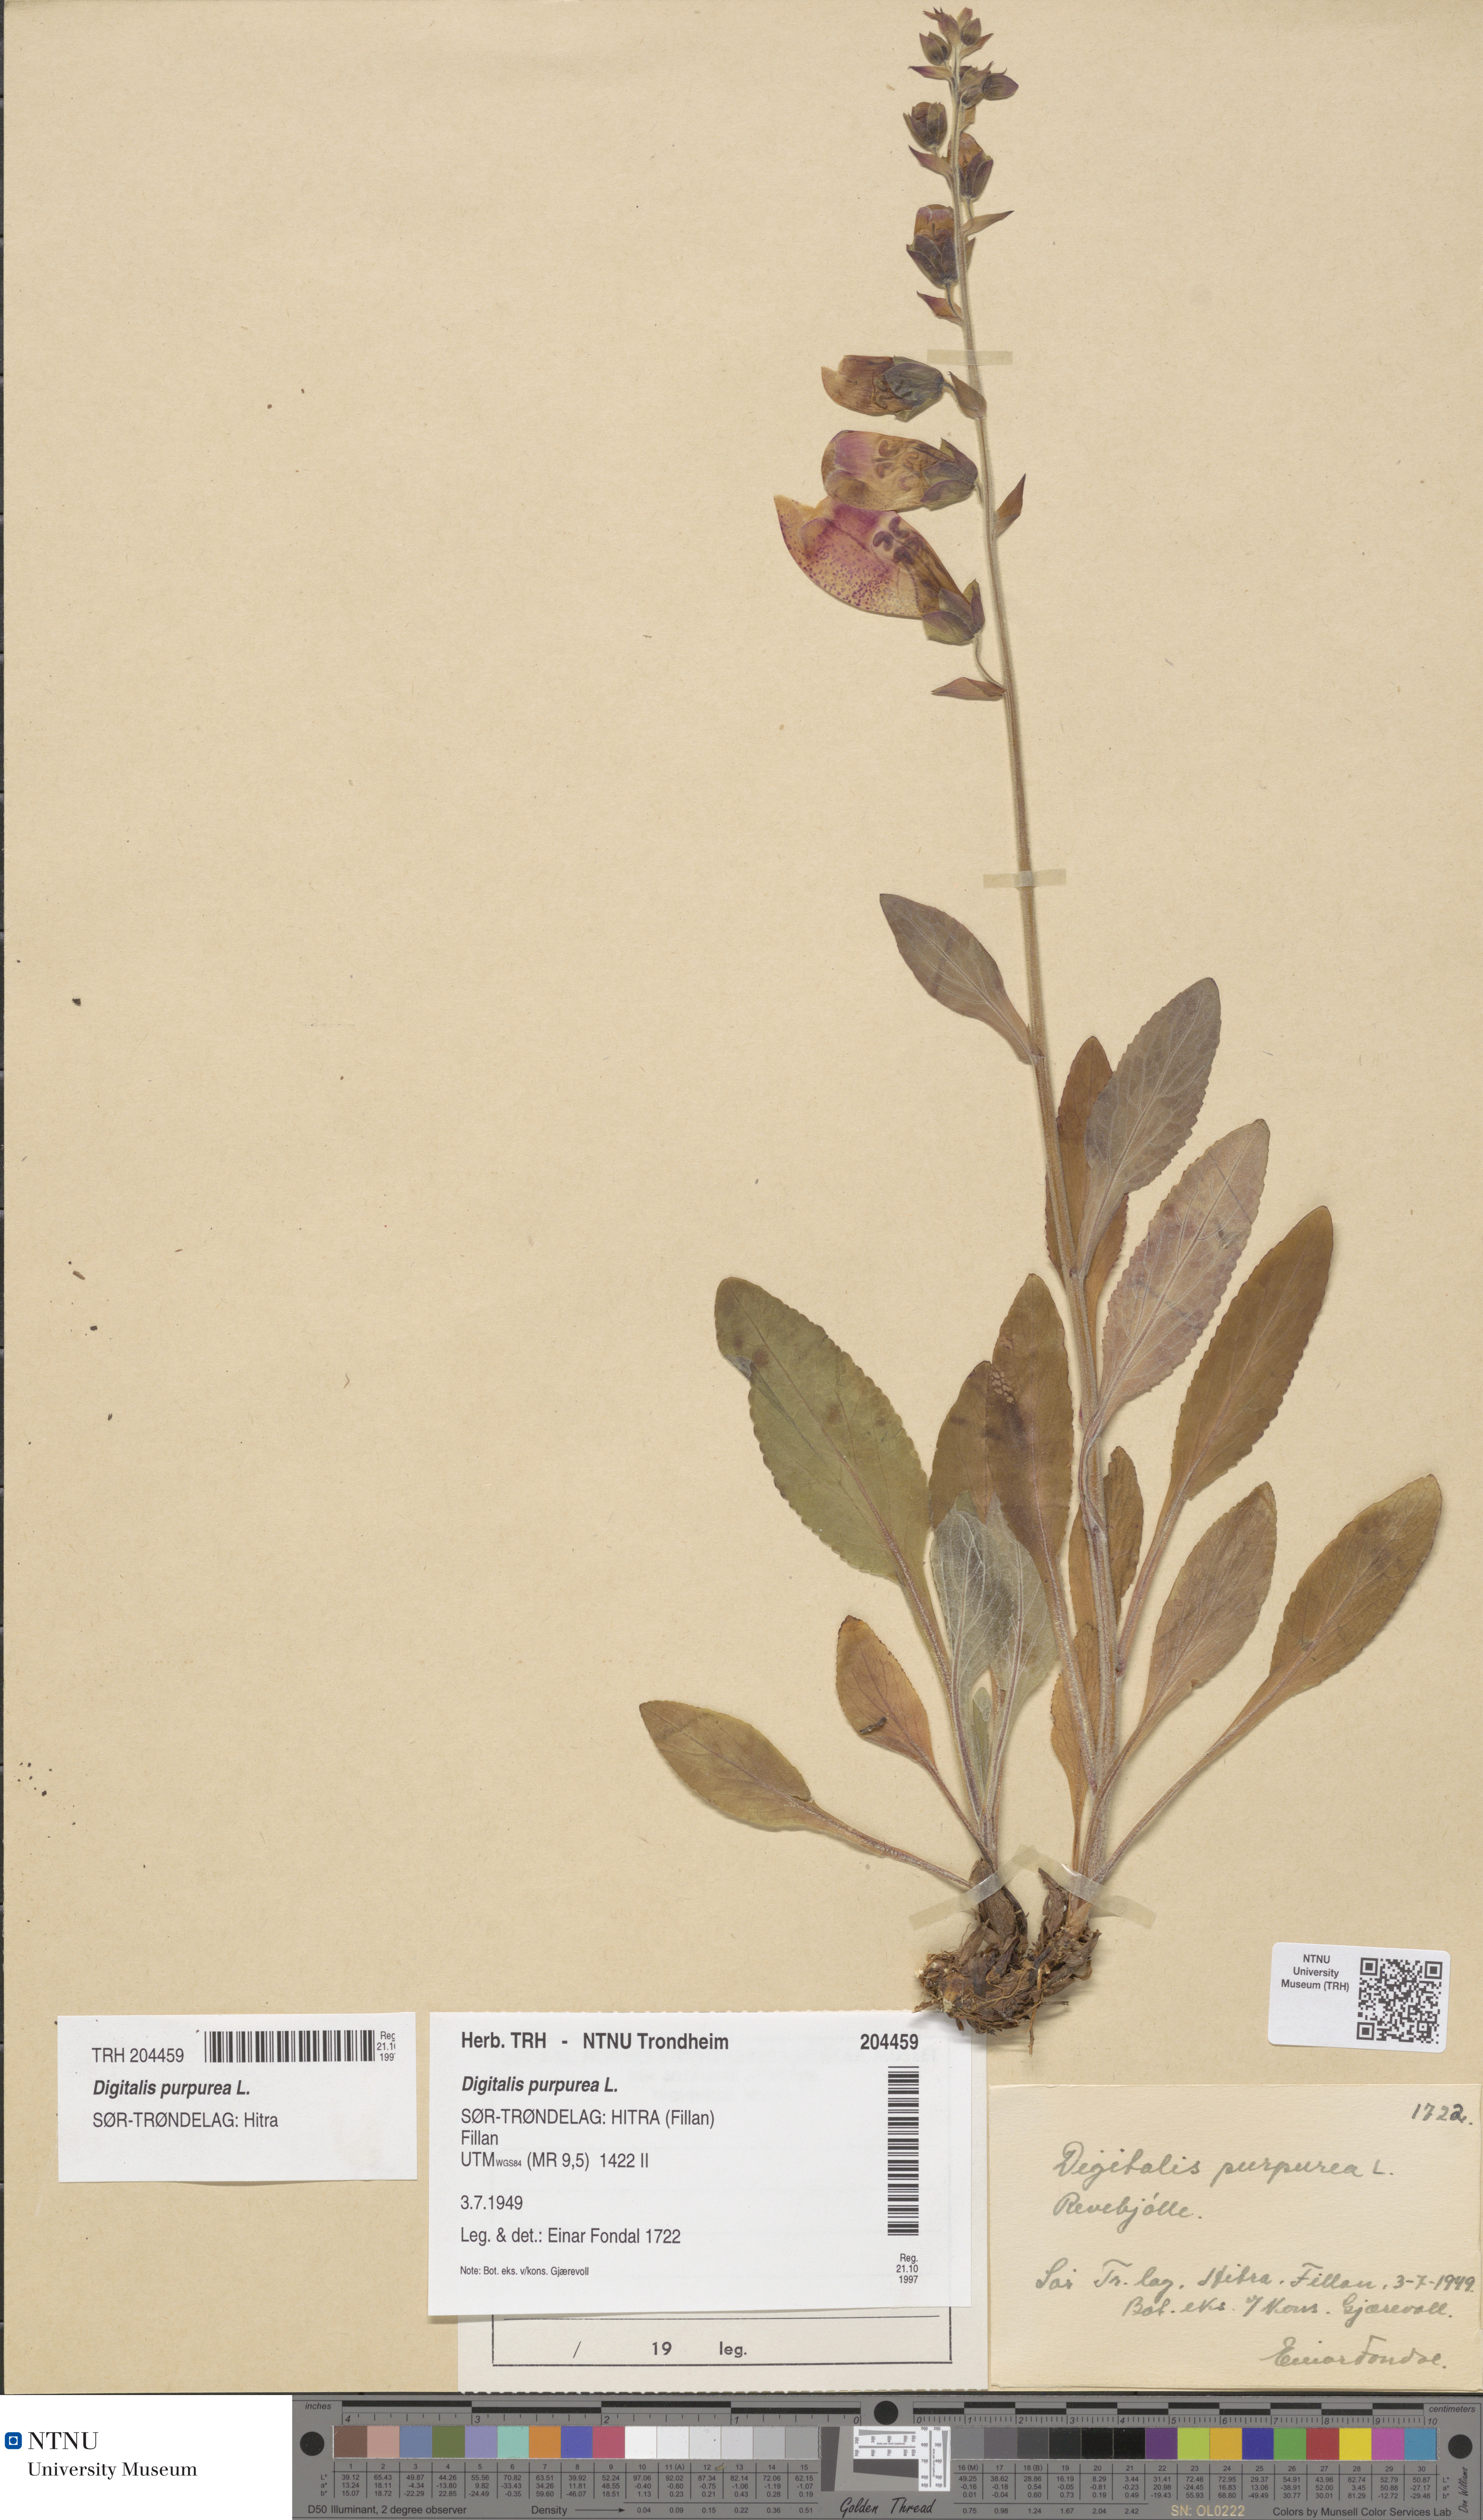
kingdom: Plantae
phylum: Tracheophyta
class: Magnoliopsida
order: Lamiales
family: Plantaginaceae
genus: Digitalis
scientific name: Digitalis purpurea
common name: Foxglove
